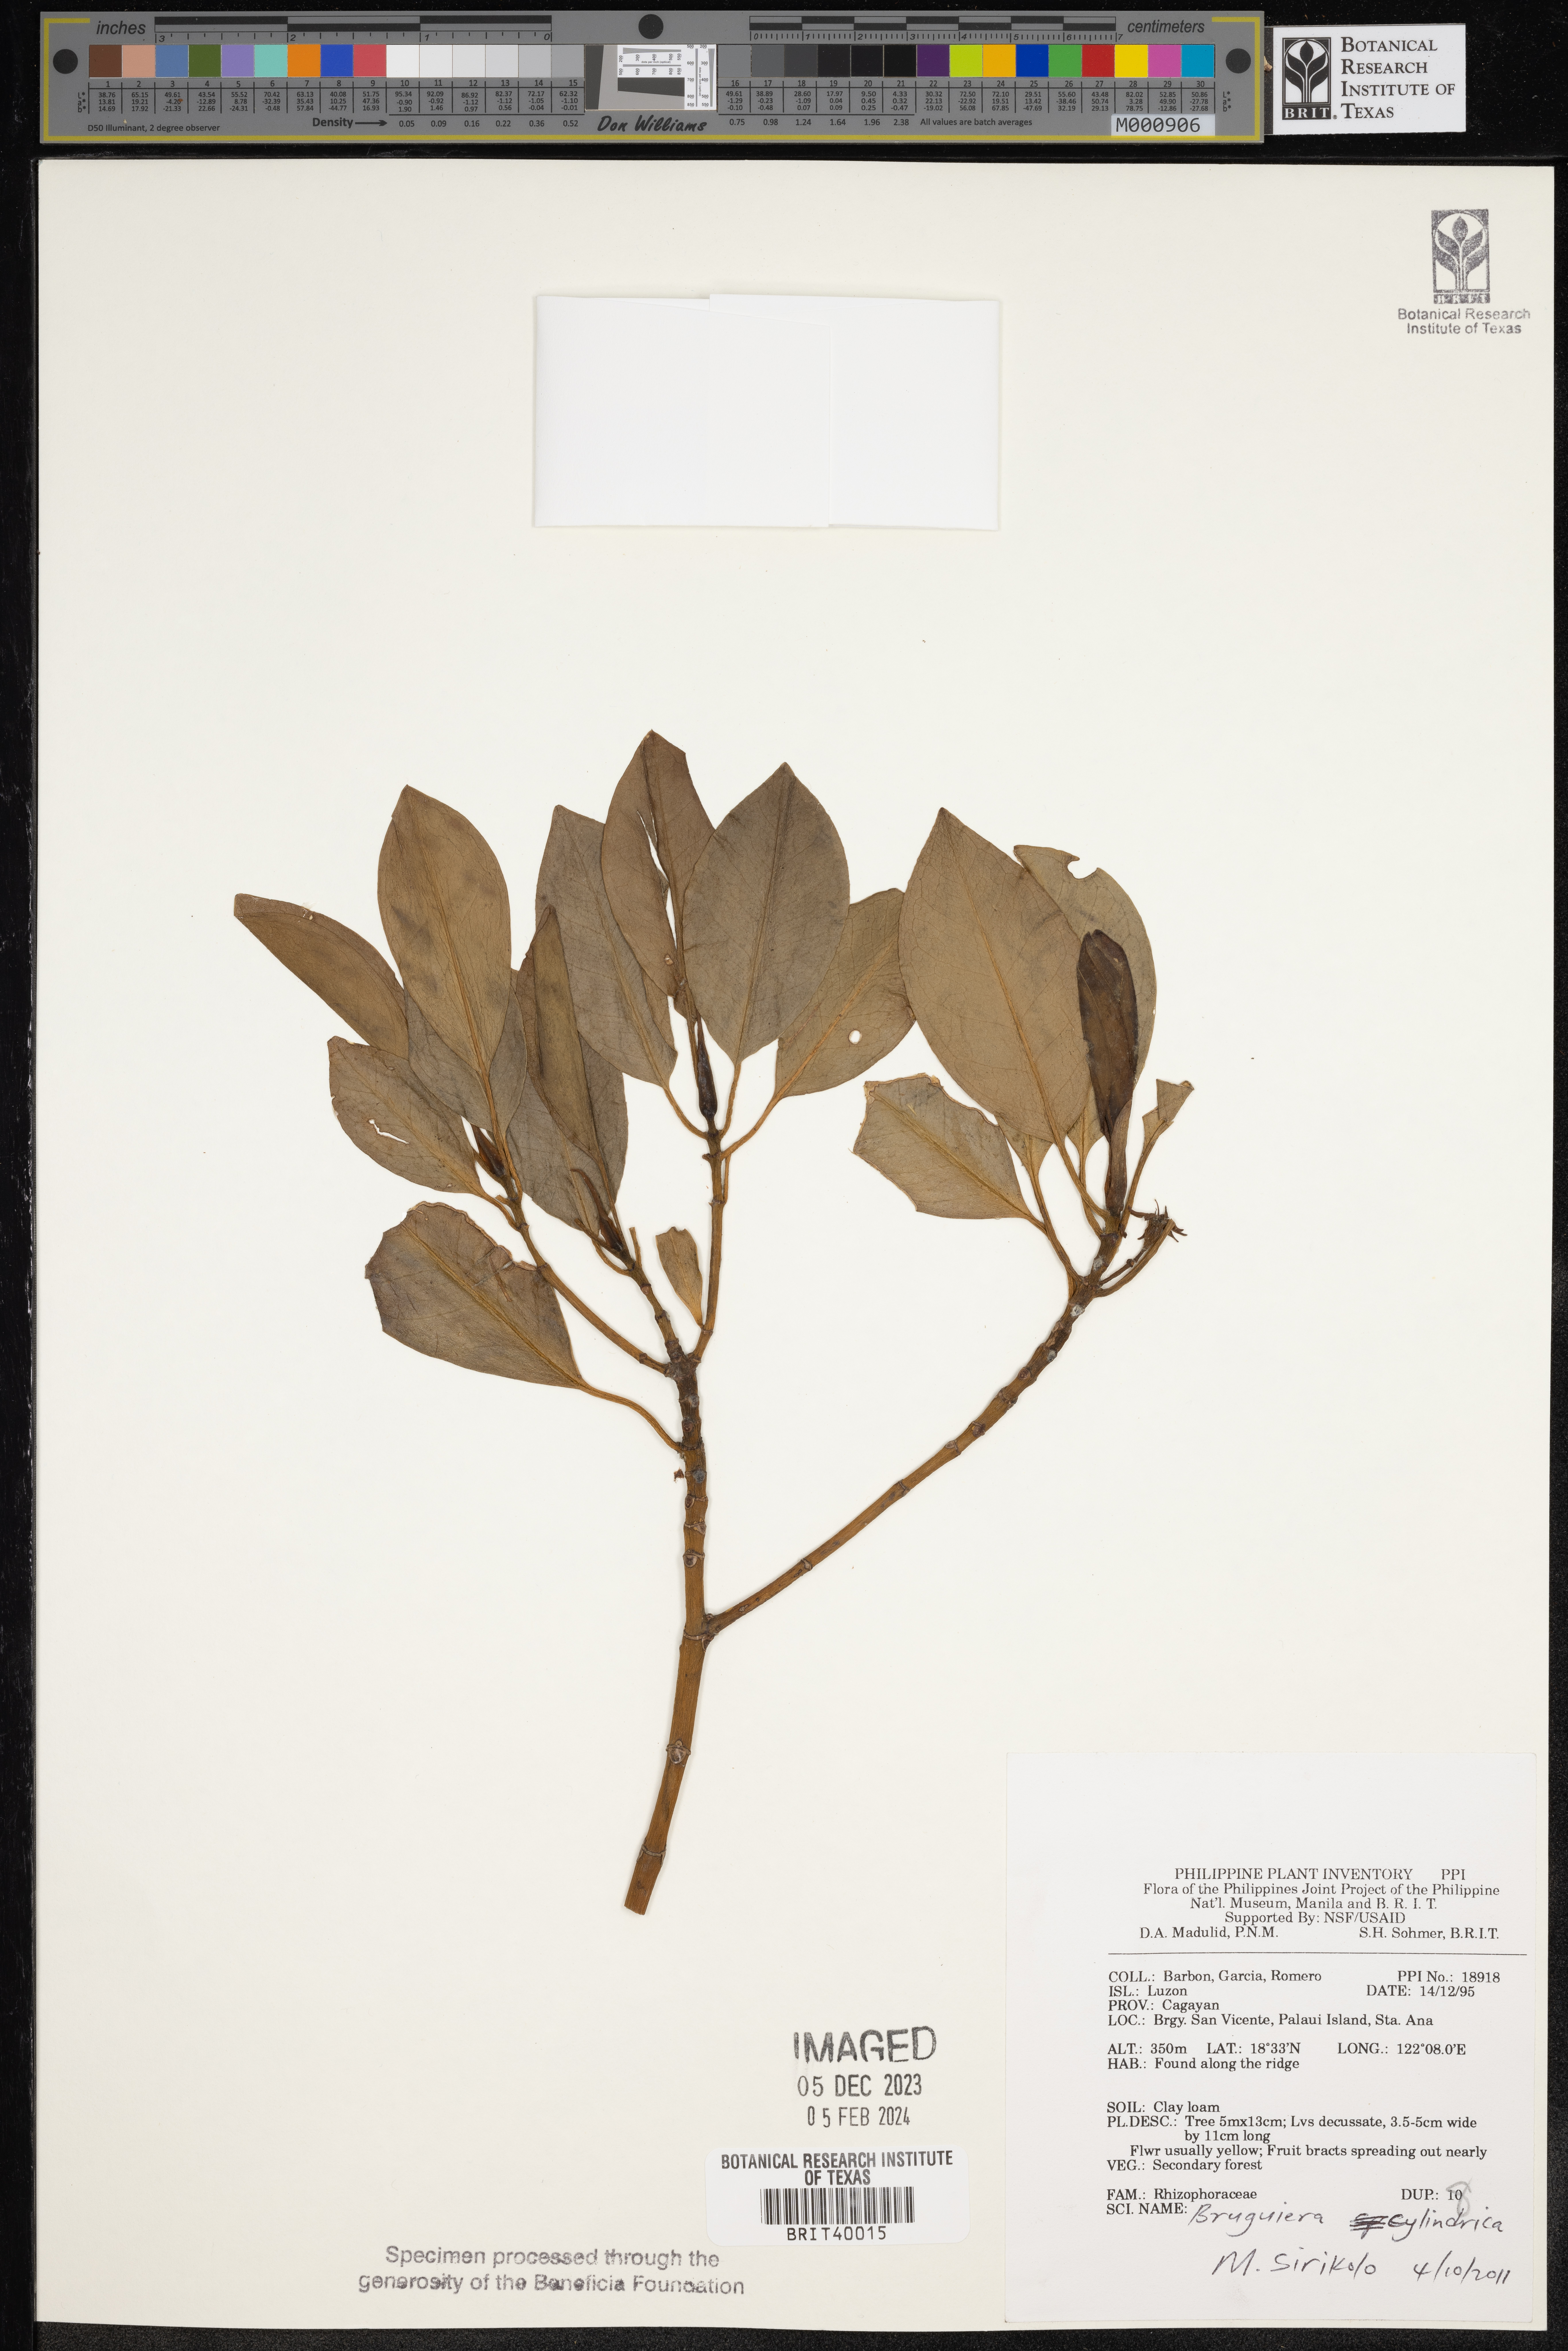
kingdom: Plantae
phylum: Tracheophyta
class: Magnoliopsida
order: Malpighiales
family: Rhizophoraceae
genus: Bruguiera
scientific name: Bruguiera cylindrica
